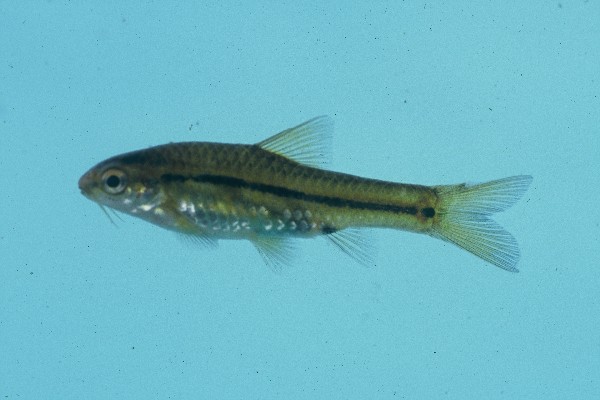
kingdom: Animalia
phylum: Chordata
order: Cypriniformes
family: Cyprinidae
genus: Enteromius
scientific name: Enteromius brevipinnis
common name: Shortfin barb
